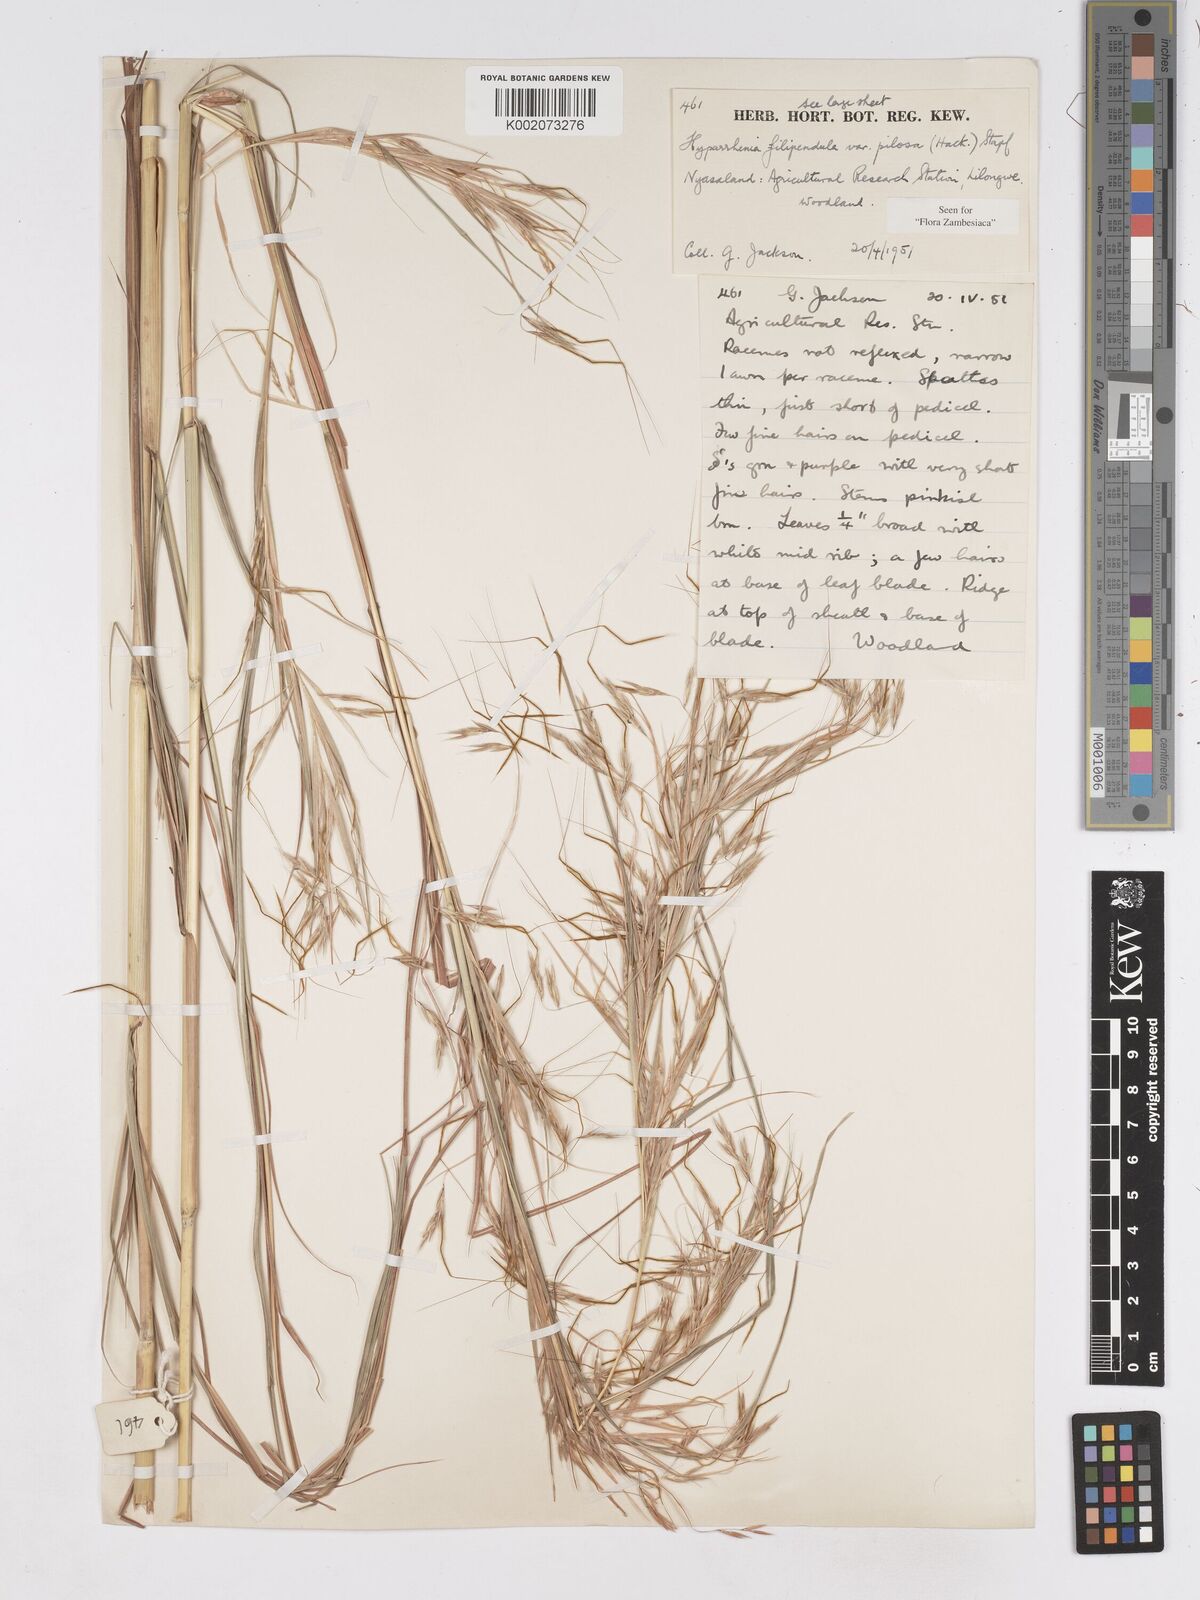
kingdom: Plantae
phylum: Tracheophyta
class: Liliopsida
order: Poales
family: Poaceae
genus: Hyparrhenia
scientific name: Hyparrhenia filipendula
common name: Tambookie grass
